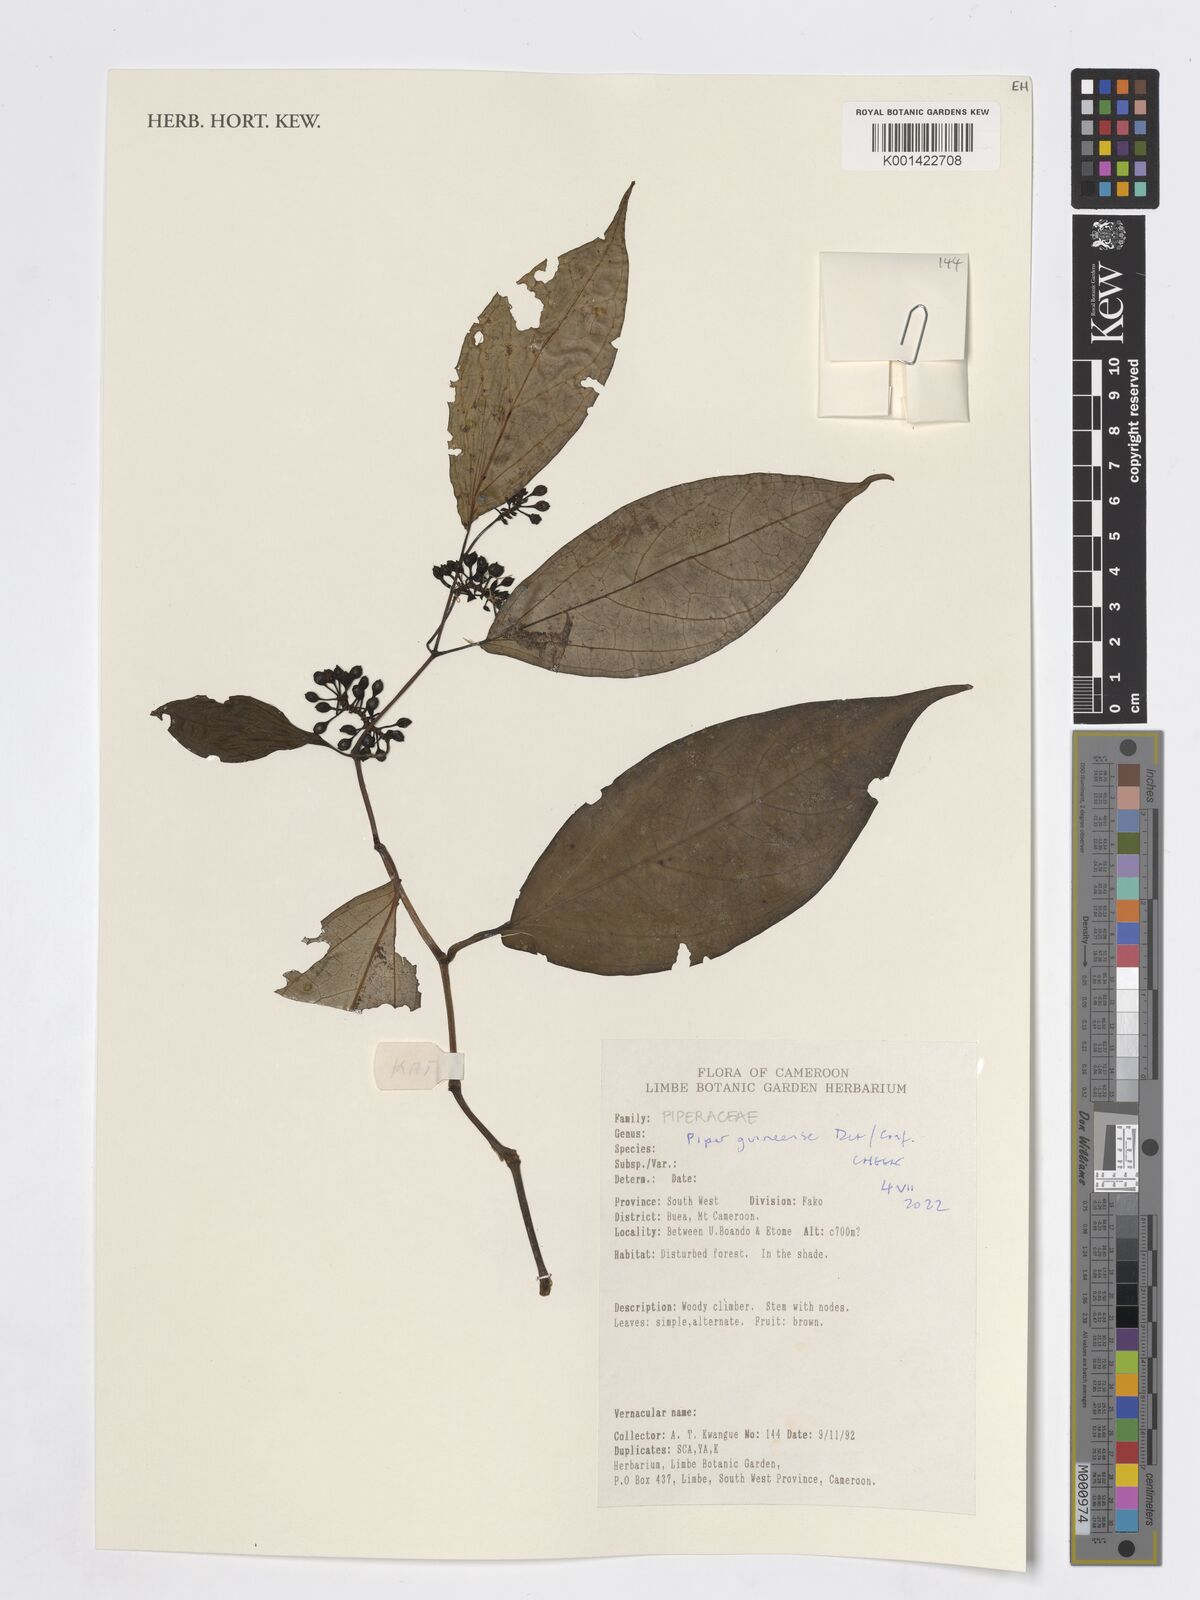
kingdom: Plantae
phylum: Tracheophyta
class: Magnoliopsida
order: Piperales
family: Piperaceae
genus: Piper
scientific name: Piper guineense
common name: Benin pepper
